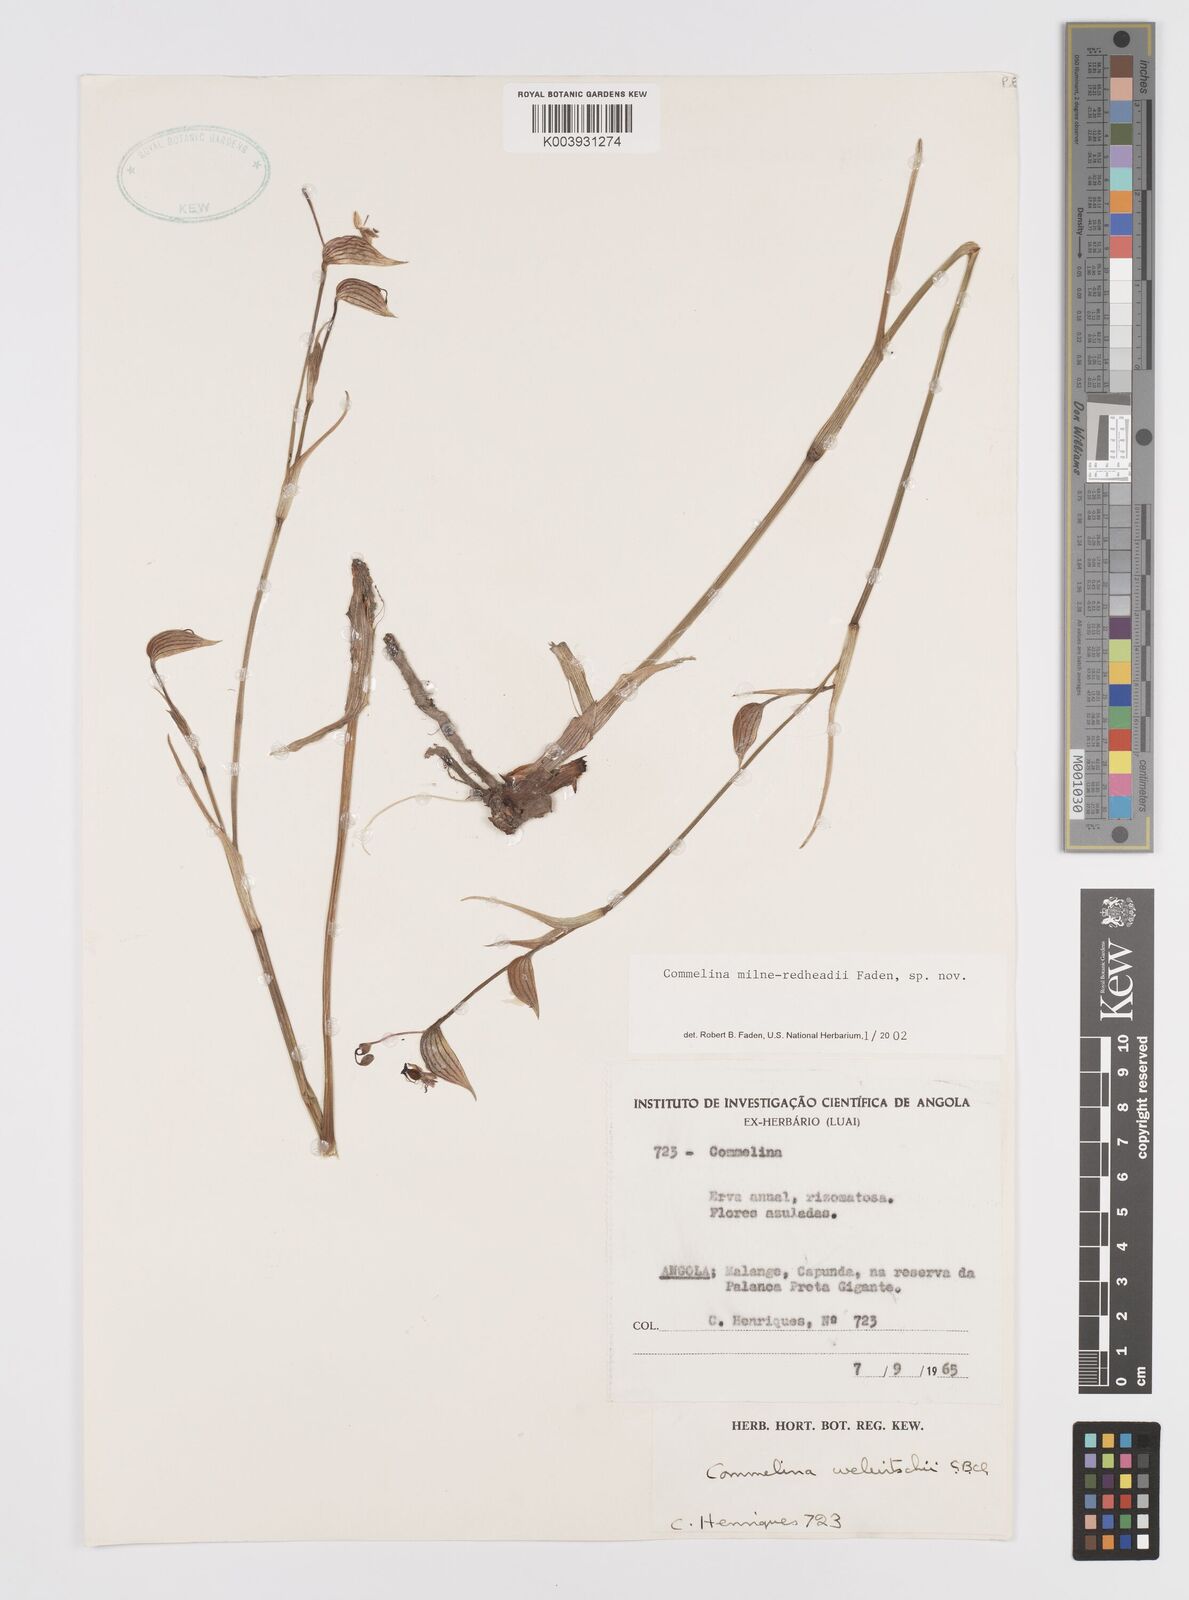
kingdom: Plantae
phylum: Tracheophyta
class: Liliopsida
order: Commelinales
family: Commelinaceae
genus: Commelina
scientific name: Commelina milne-redheadii
